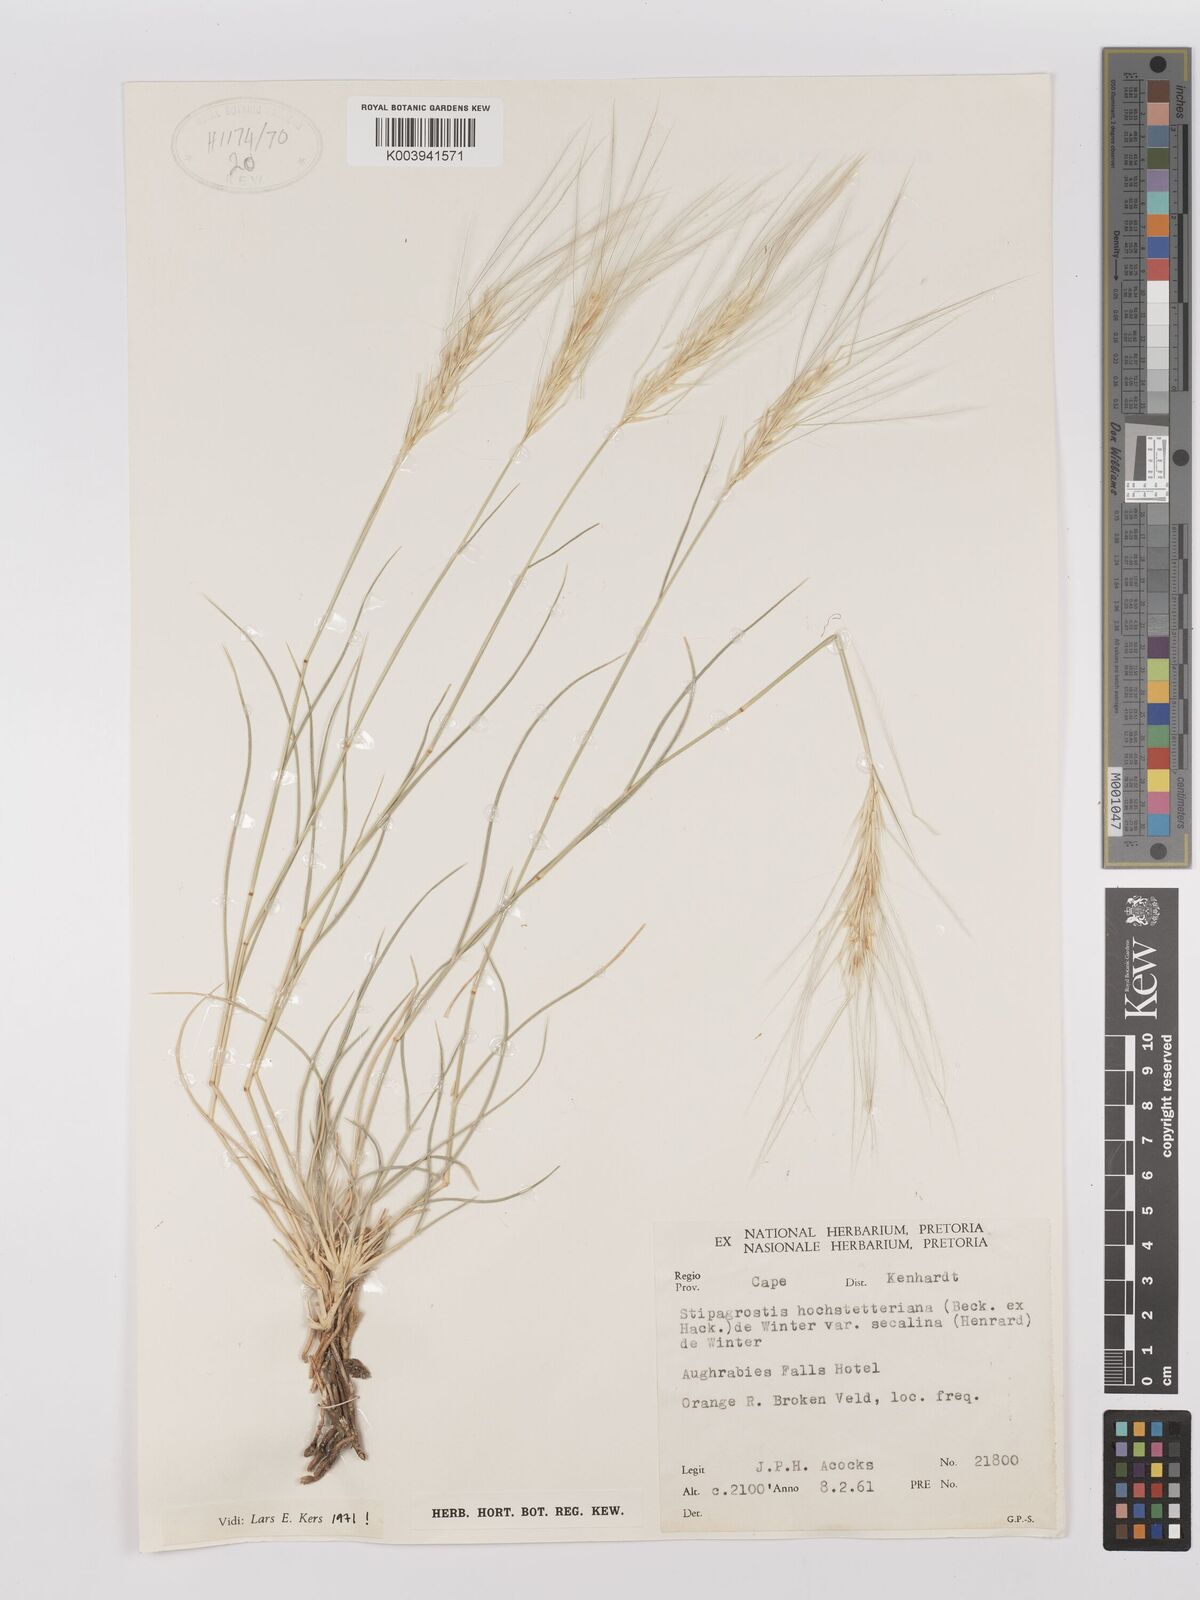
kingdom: Plantae
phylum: Tracheophyta
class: Liliopsida
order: Poales
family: Poaceae
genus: Stipagrostis
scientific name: Stipagrostis hochstetteriana
